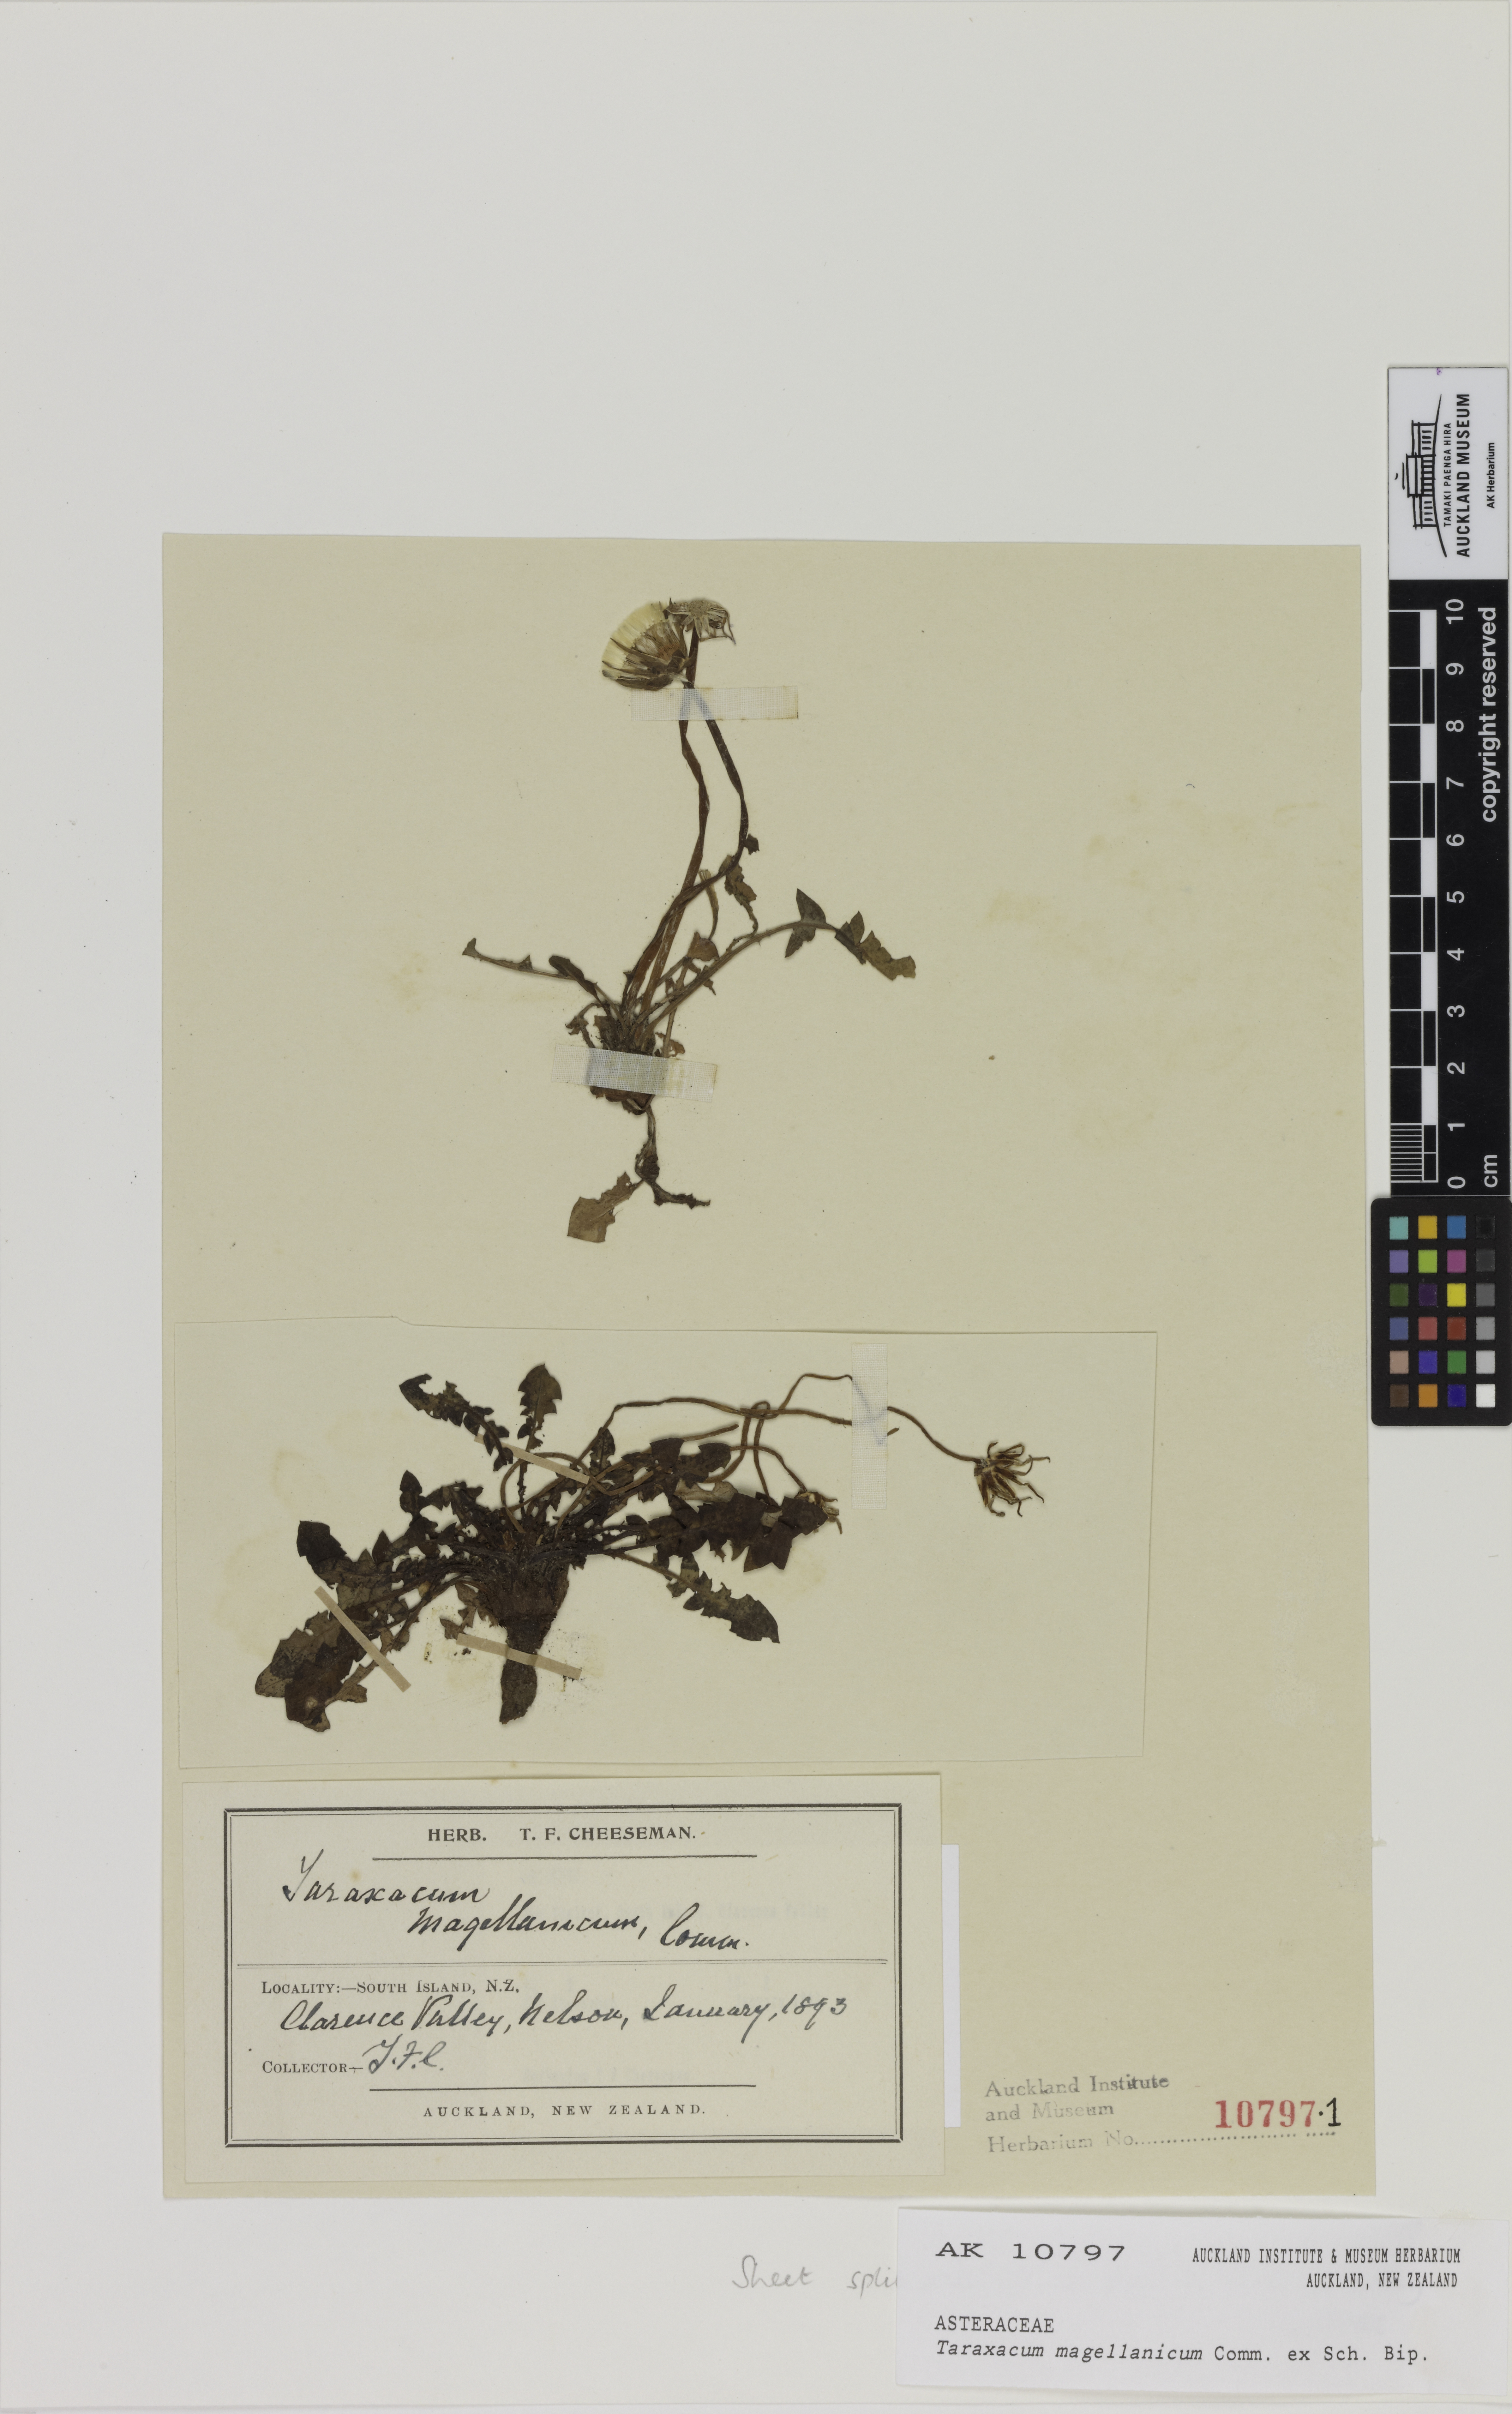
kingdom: Plantae
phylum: Tracheophyta
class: Magnoliopsida
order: Asterales
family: Asteraceae
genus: Taraxacum
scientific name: Taraxacum gilliesii
